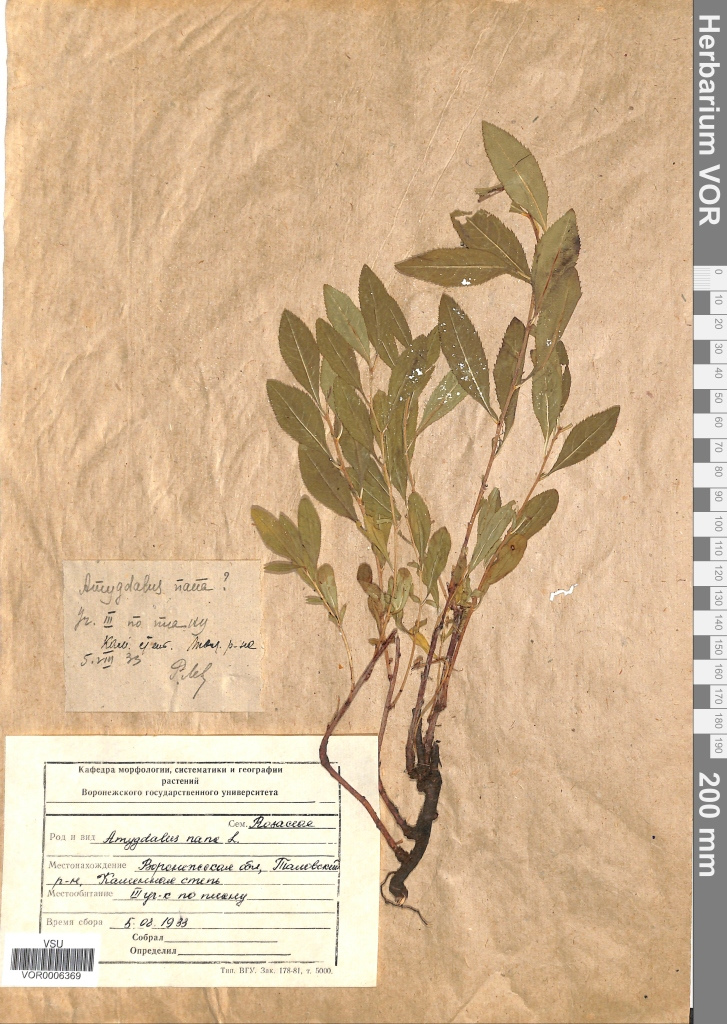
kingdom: Plantae
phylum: Tracheophyta
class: Magnoliopsida
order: Rosales
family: Rosaceae
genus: Prunus
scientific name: Prunus tenella
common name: Dwarf russian almond
